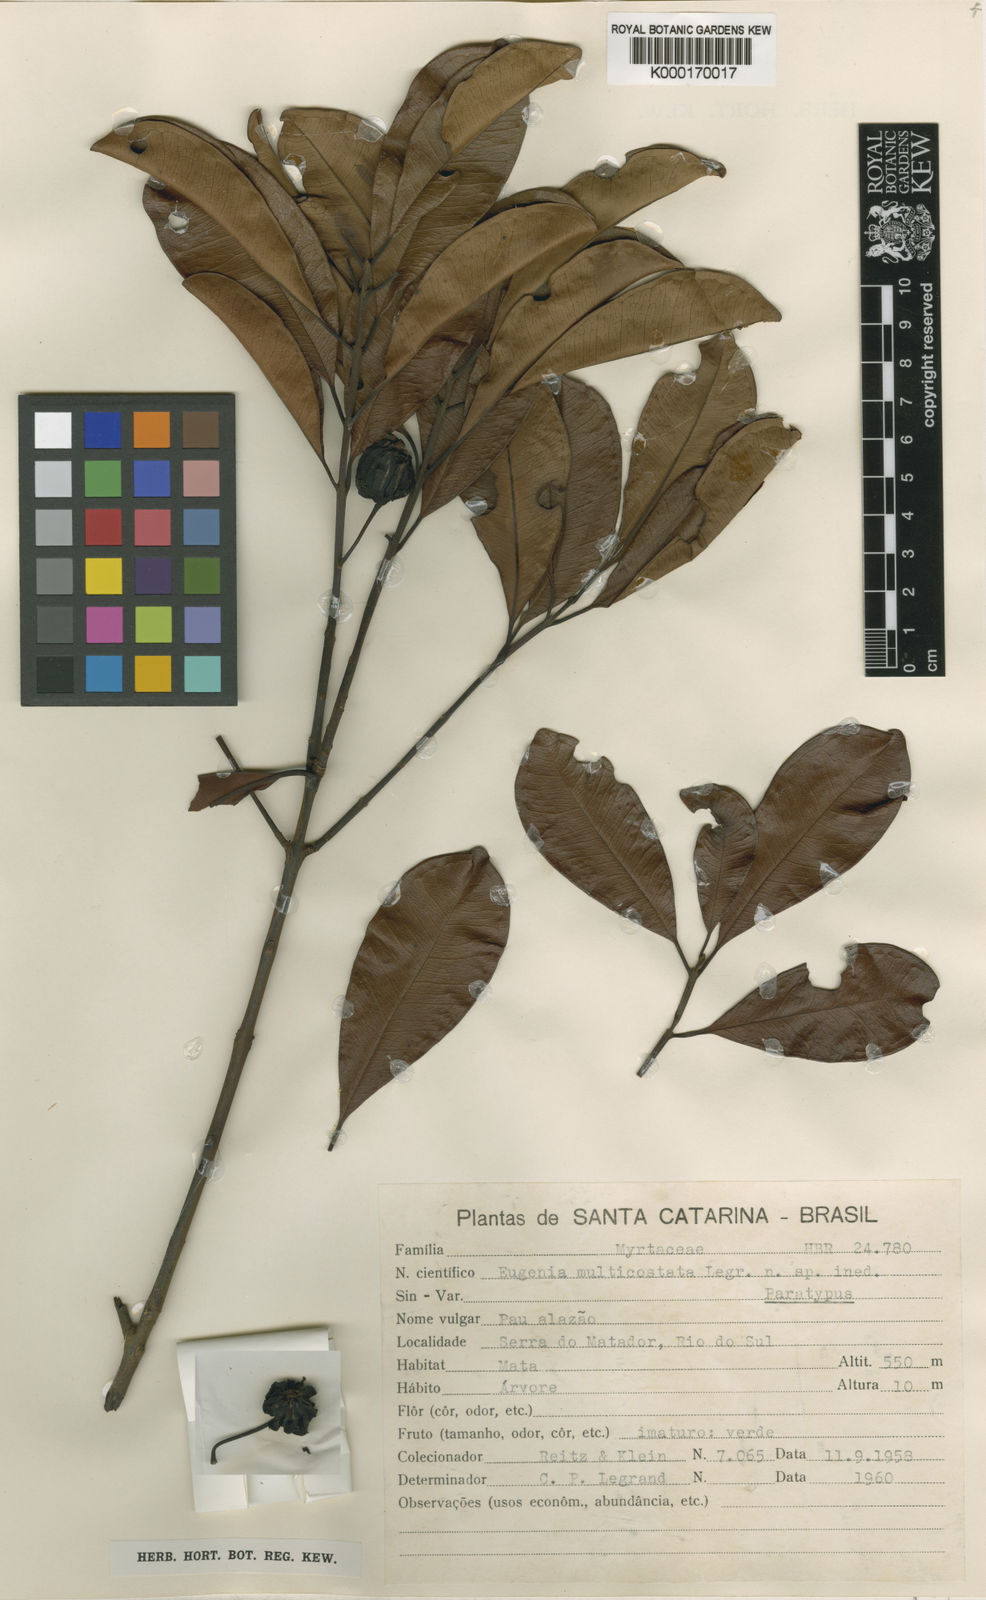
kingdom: Plantae
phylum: Tracheophyta
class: Magnoliopsida
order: Myrtales
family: Myrtaceae
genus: Eugenia
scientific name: Eugenia multicostata
